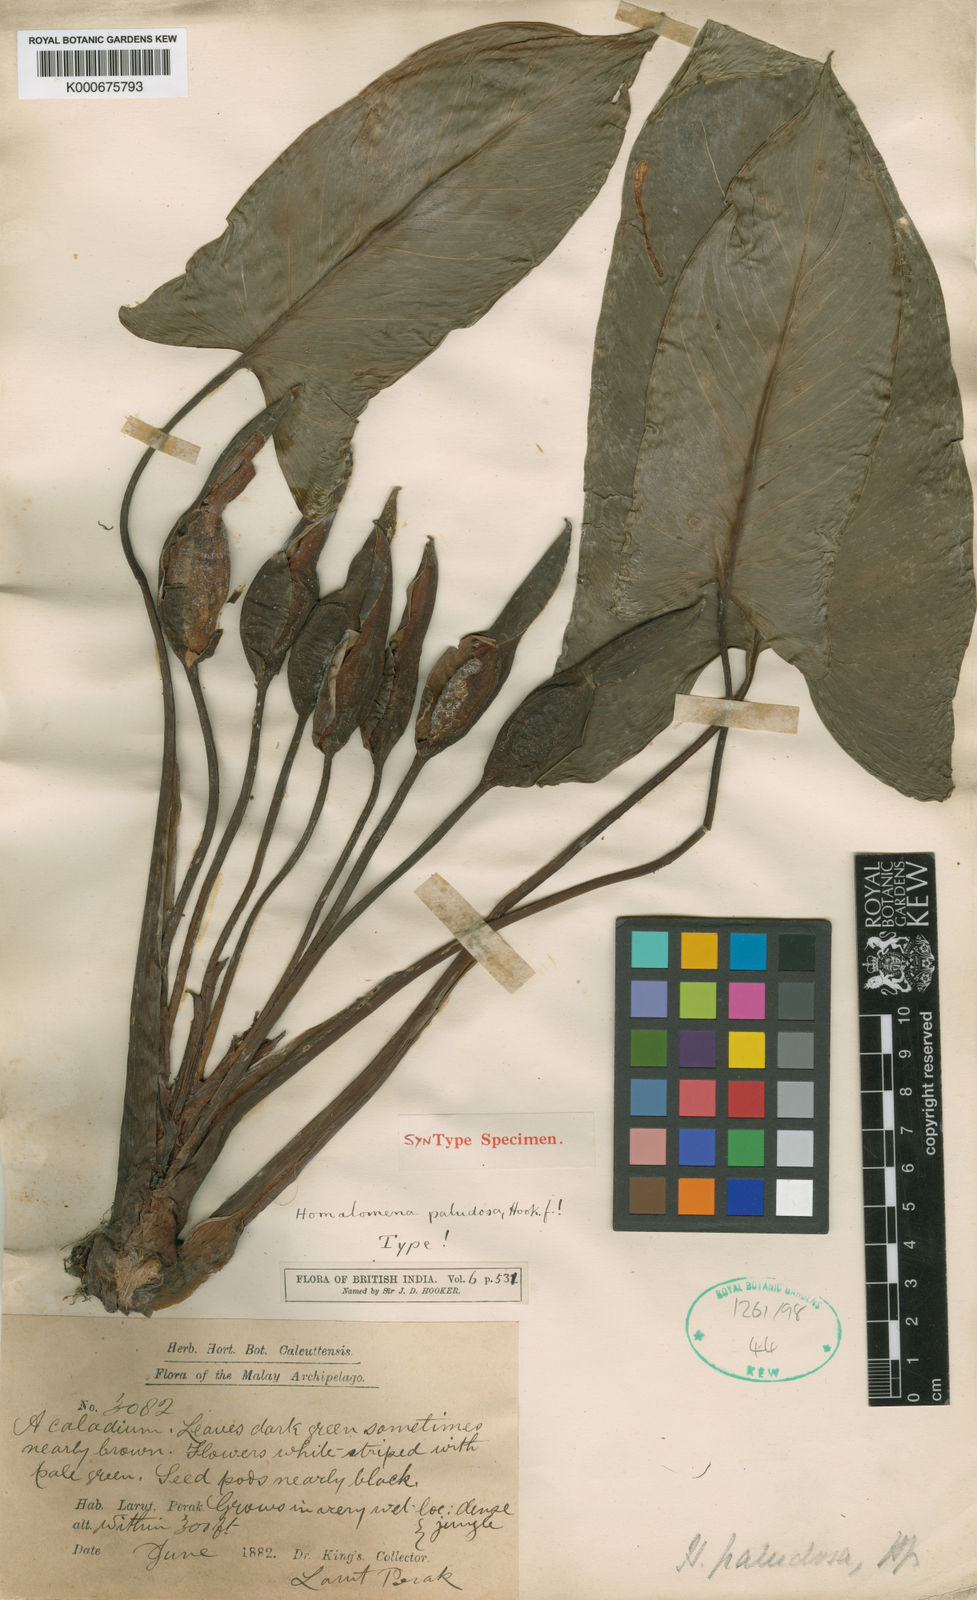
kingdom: Plantae
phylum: Tracheophyta
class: Liliopsida
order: Alismatales
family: Araceae
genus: Homalomena
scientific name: Homalomena rostrata
